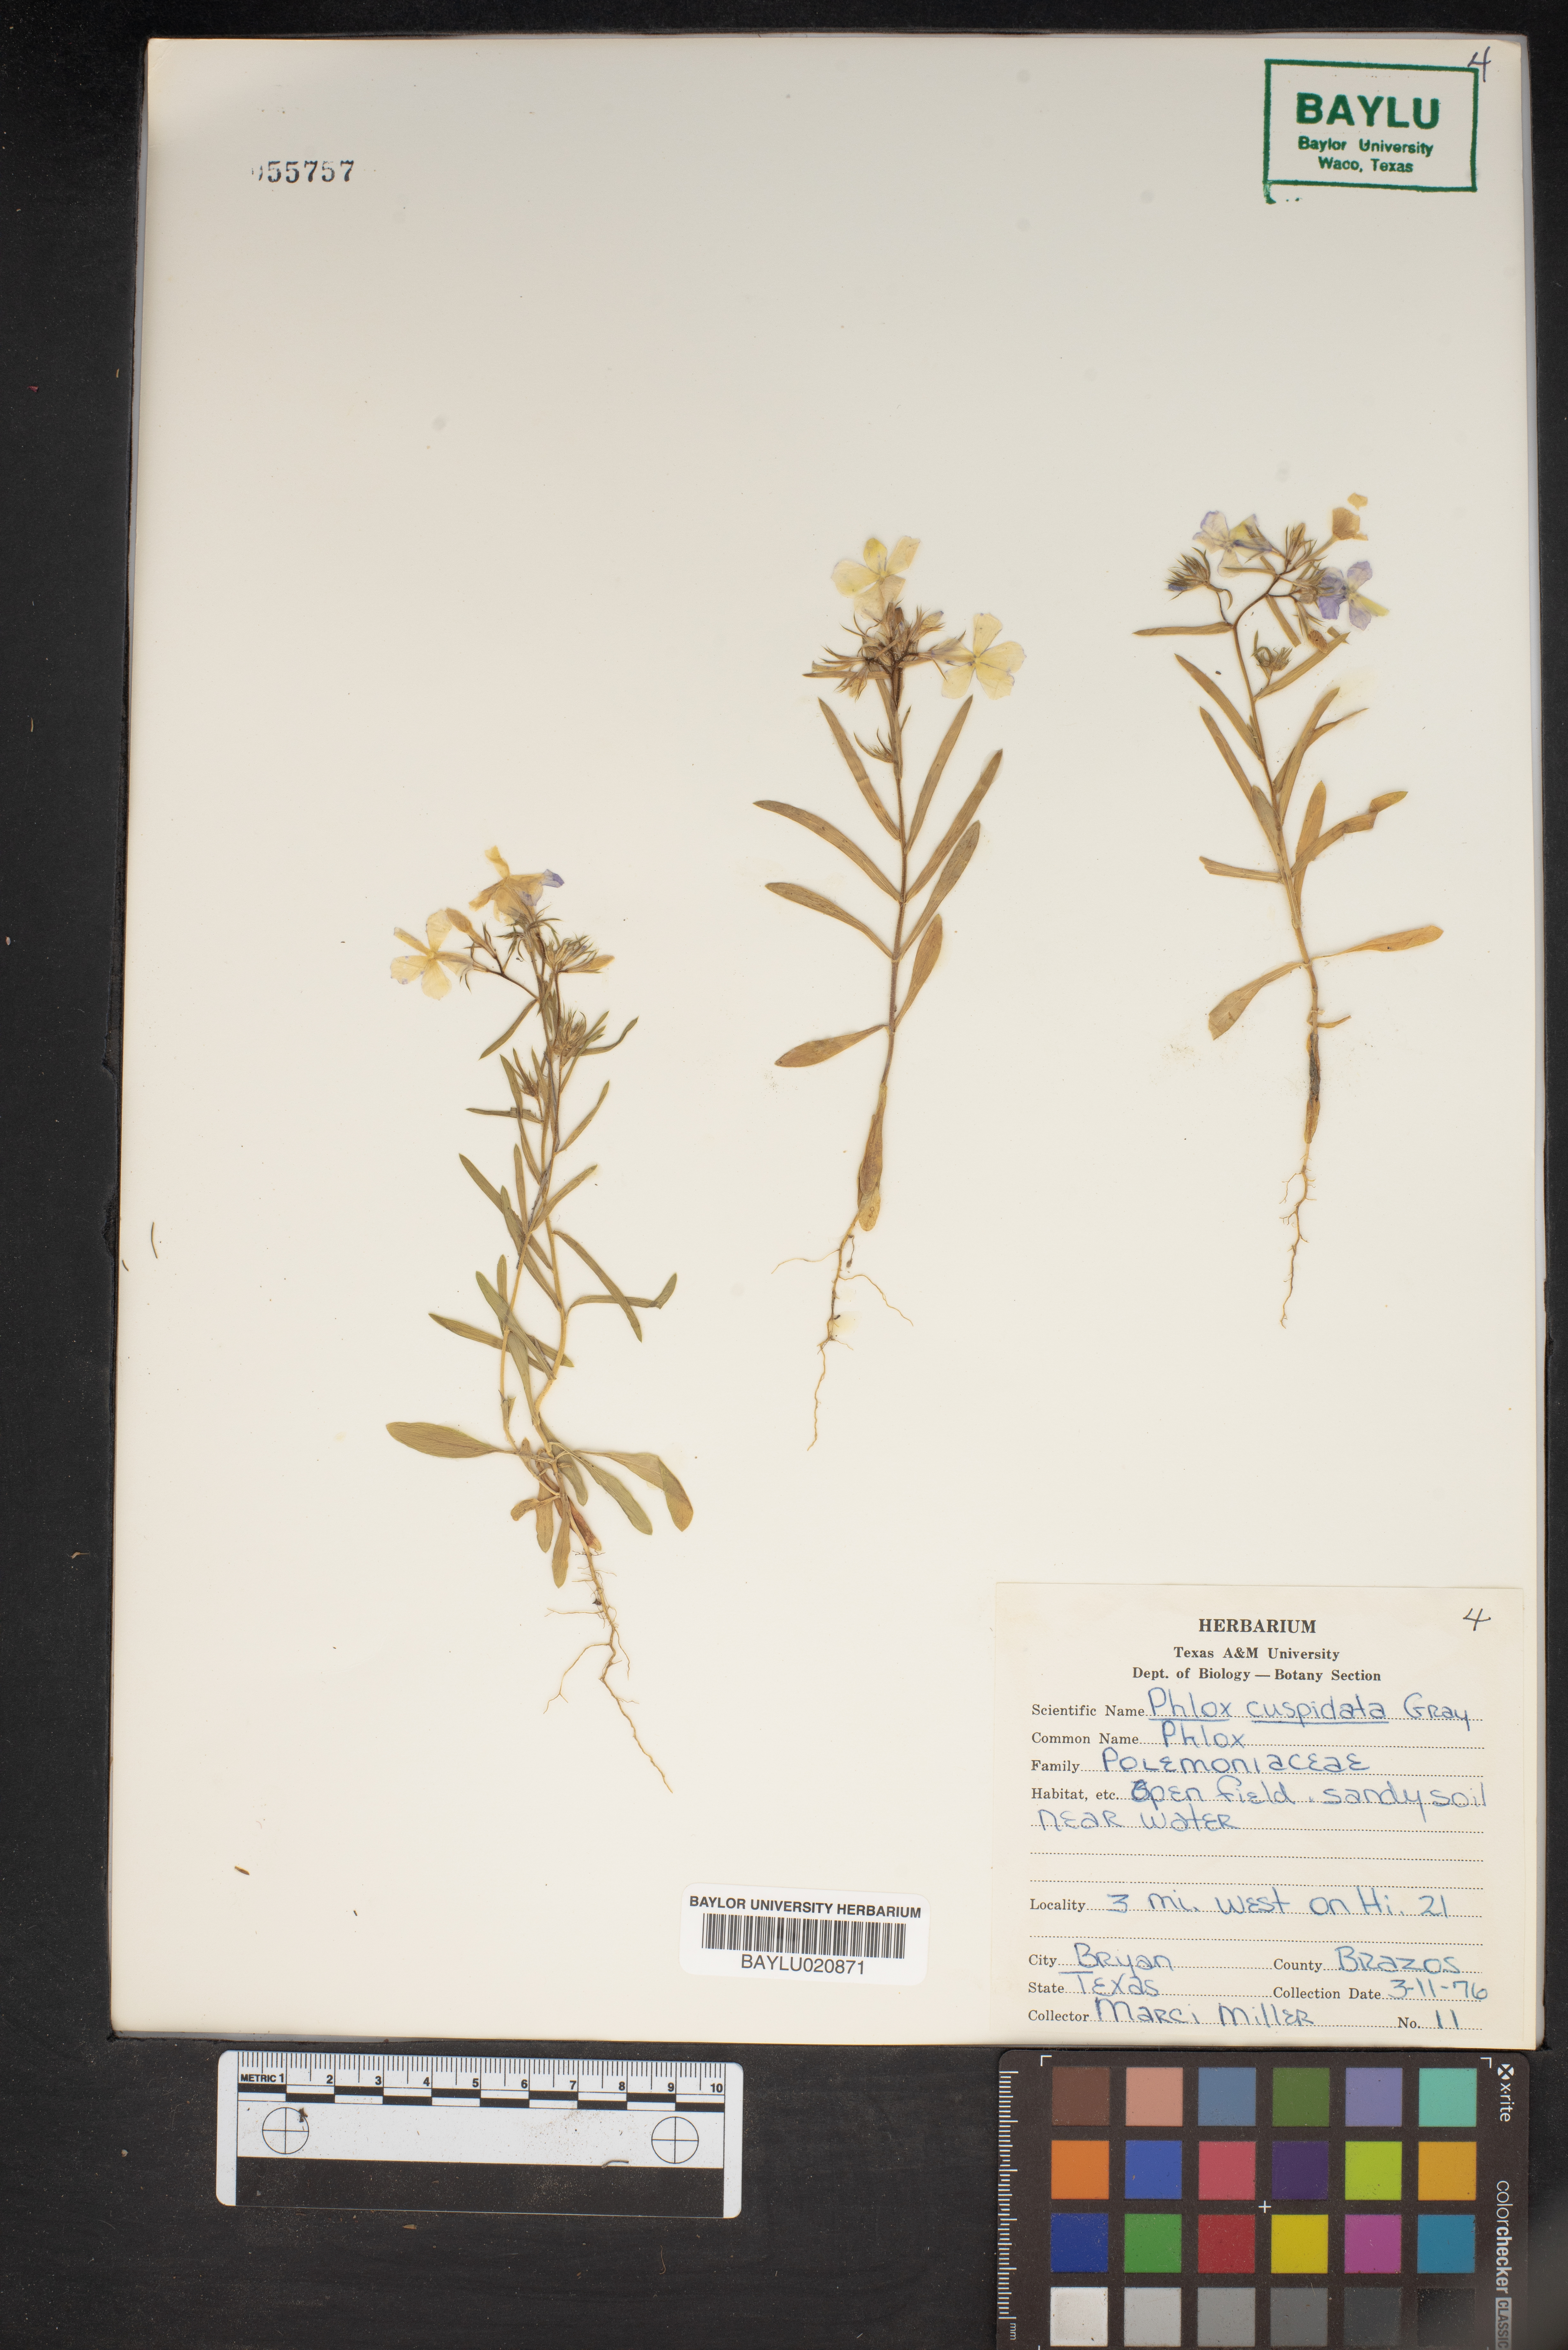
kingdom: Plantae
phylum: Tracheophyta
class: Magnoliopsida
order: Ericales
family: Polemoniaceae
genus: Phlox
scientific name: Phlox cuspidata
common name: Pointed phlox
